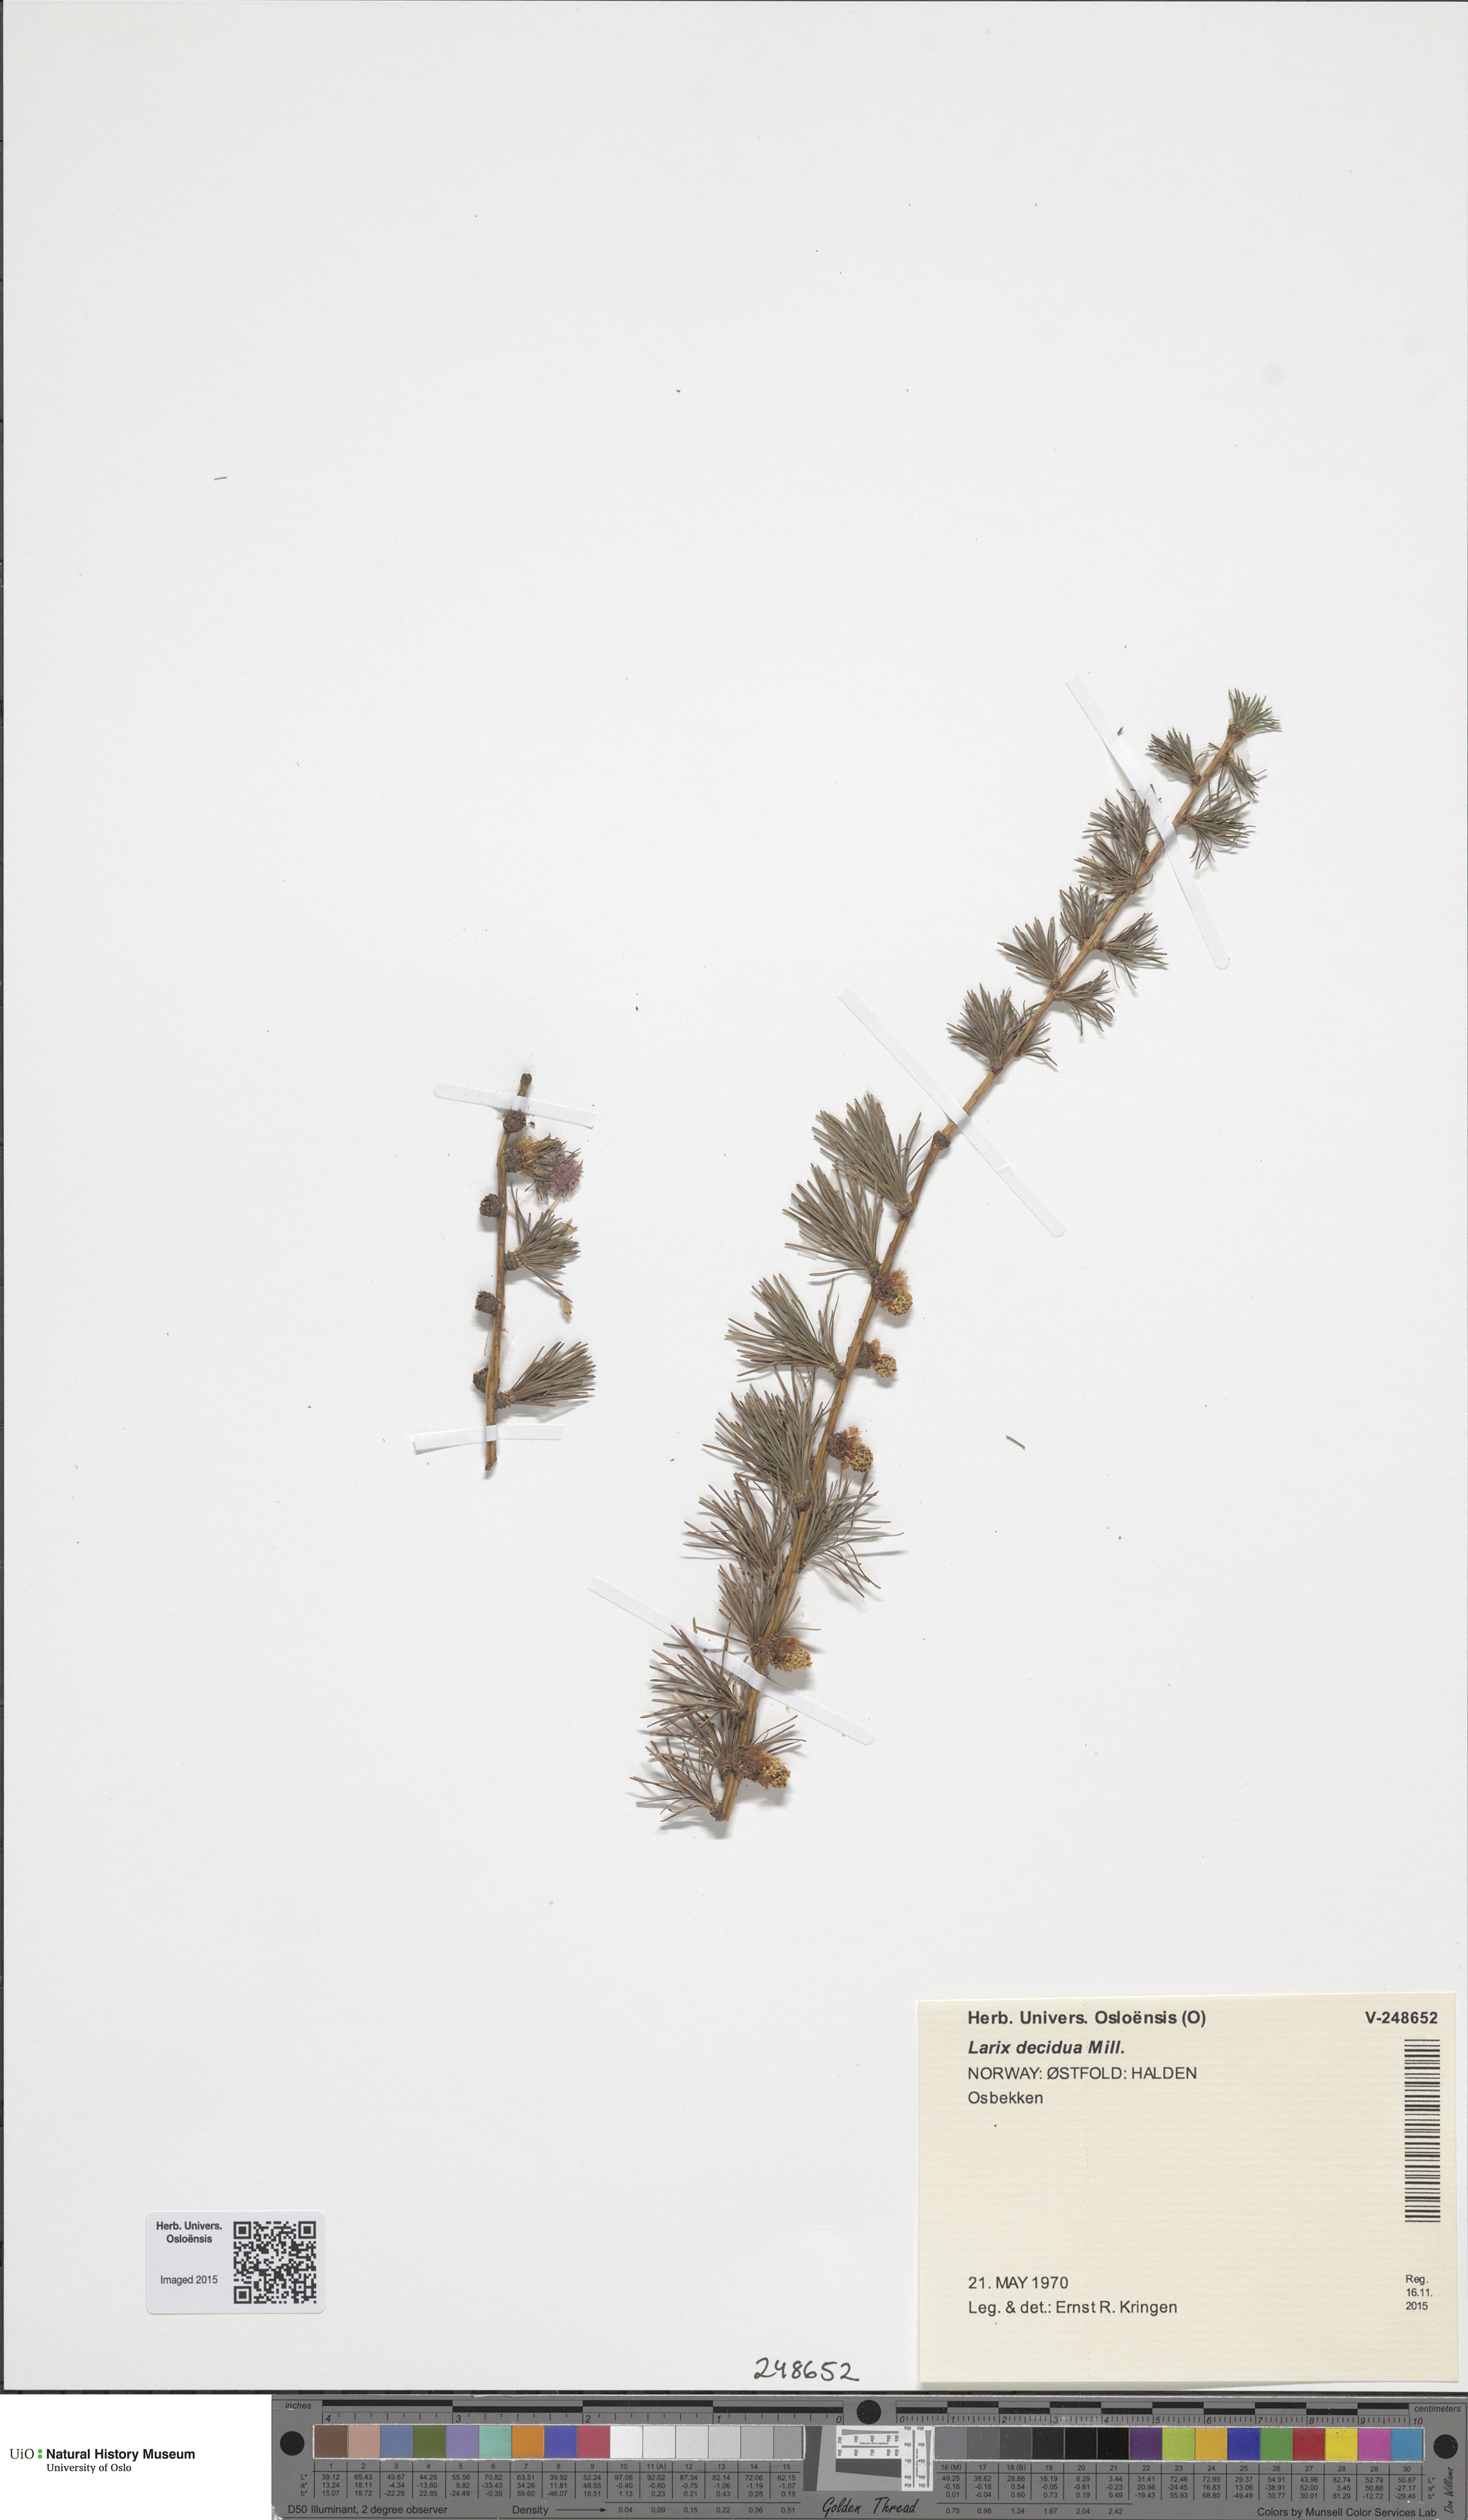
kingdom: Plantae
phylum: Tracheophyta
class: Pinopsida
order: Pinales
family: Pinaceae
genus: Larix
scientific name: Larix decidua
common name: European larch
